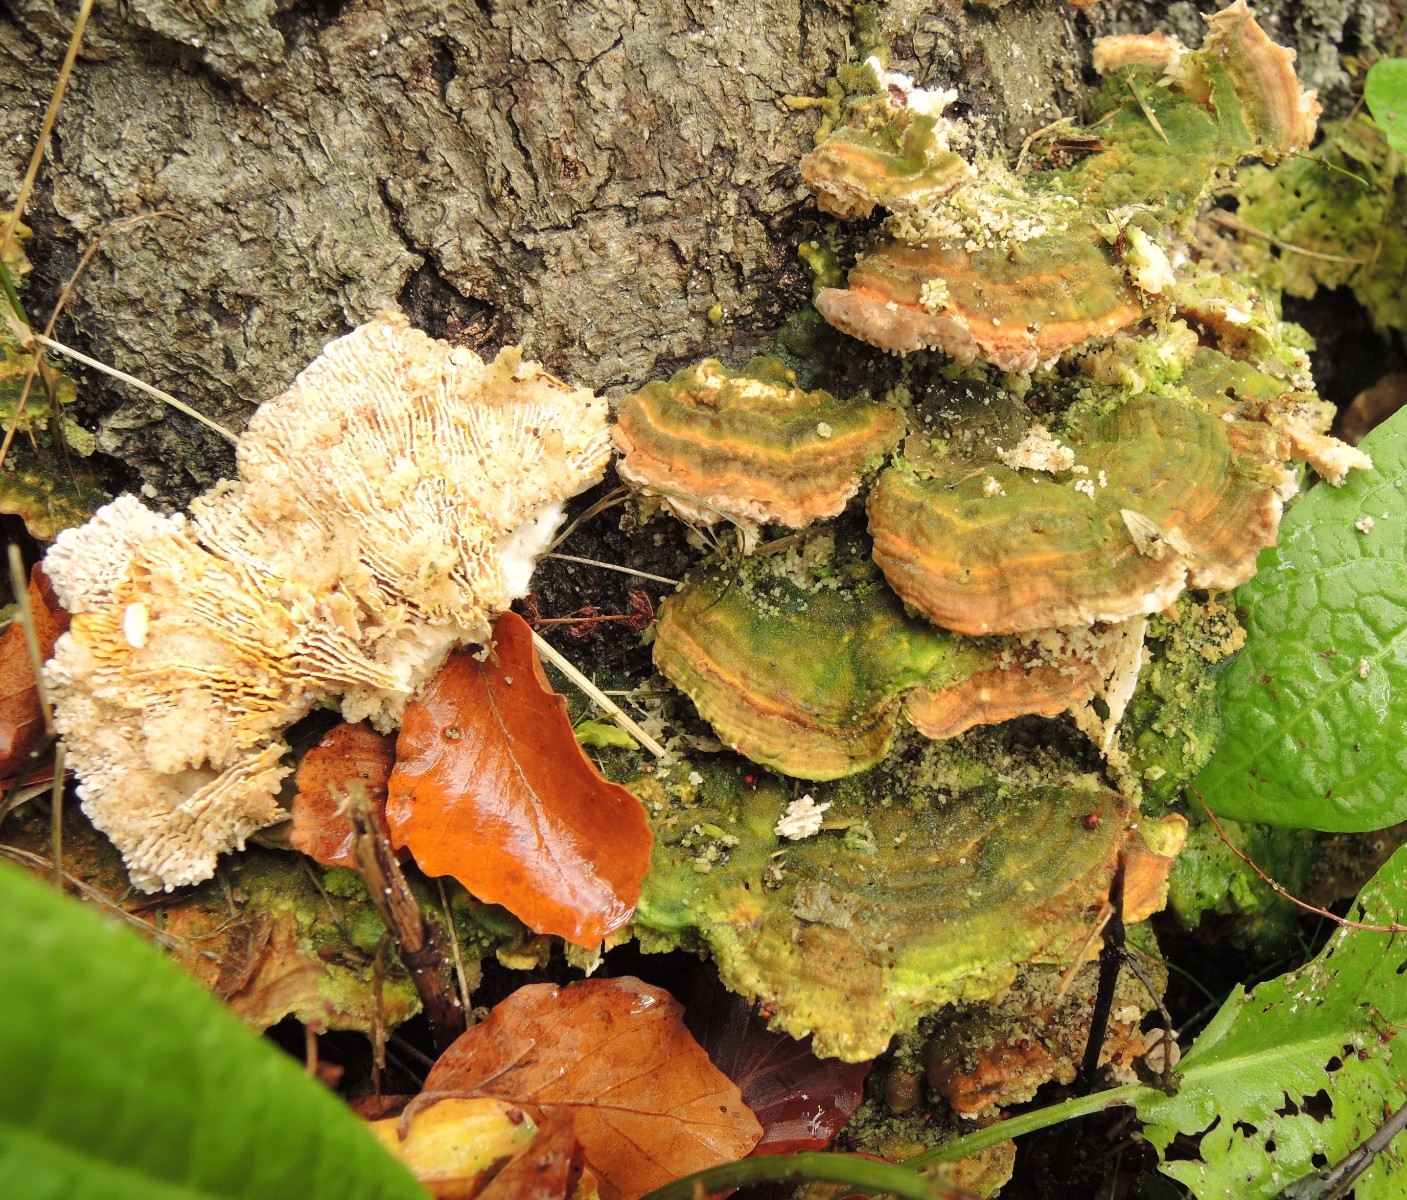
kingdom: Fungi
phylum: Basidiomycota
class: Agaricomycetes
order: Polyporales
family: Polyporaceae
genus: Lenzites
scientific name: Lenzites betulinus
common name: birke-læderporesvamp
